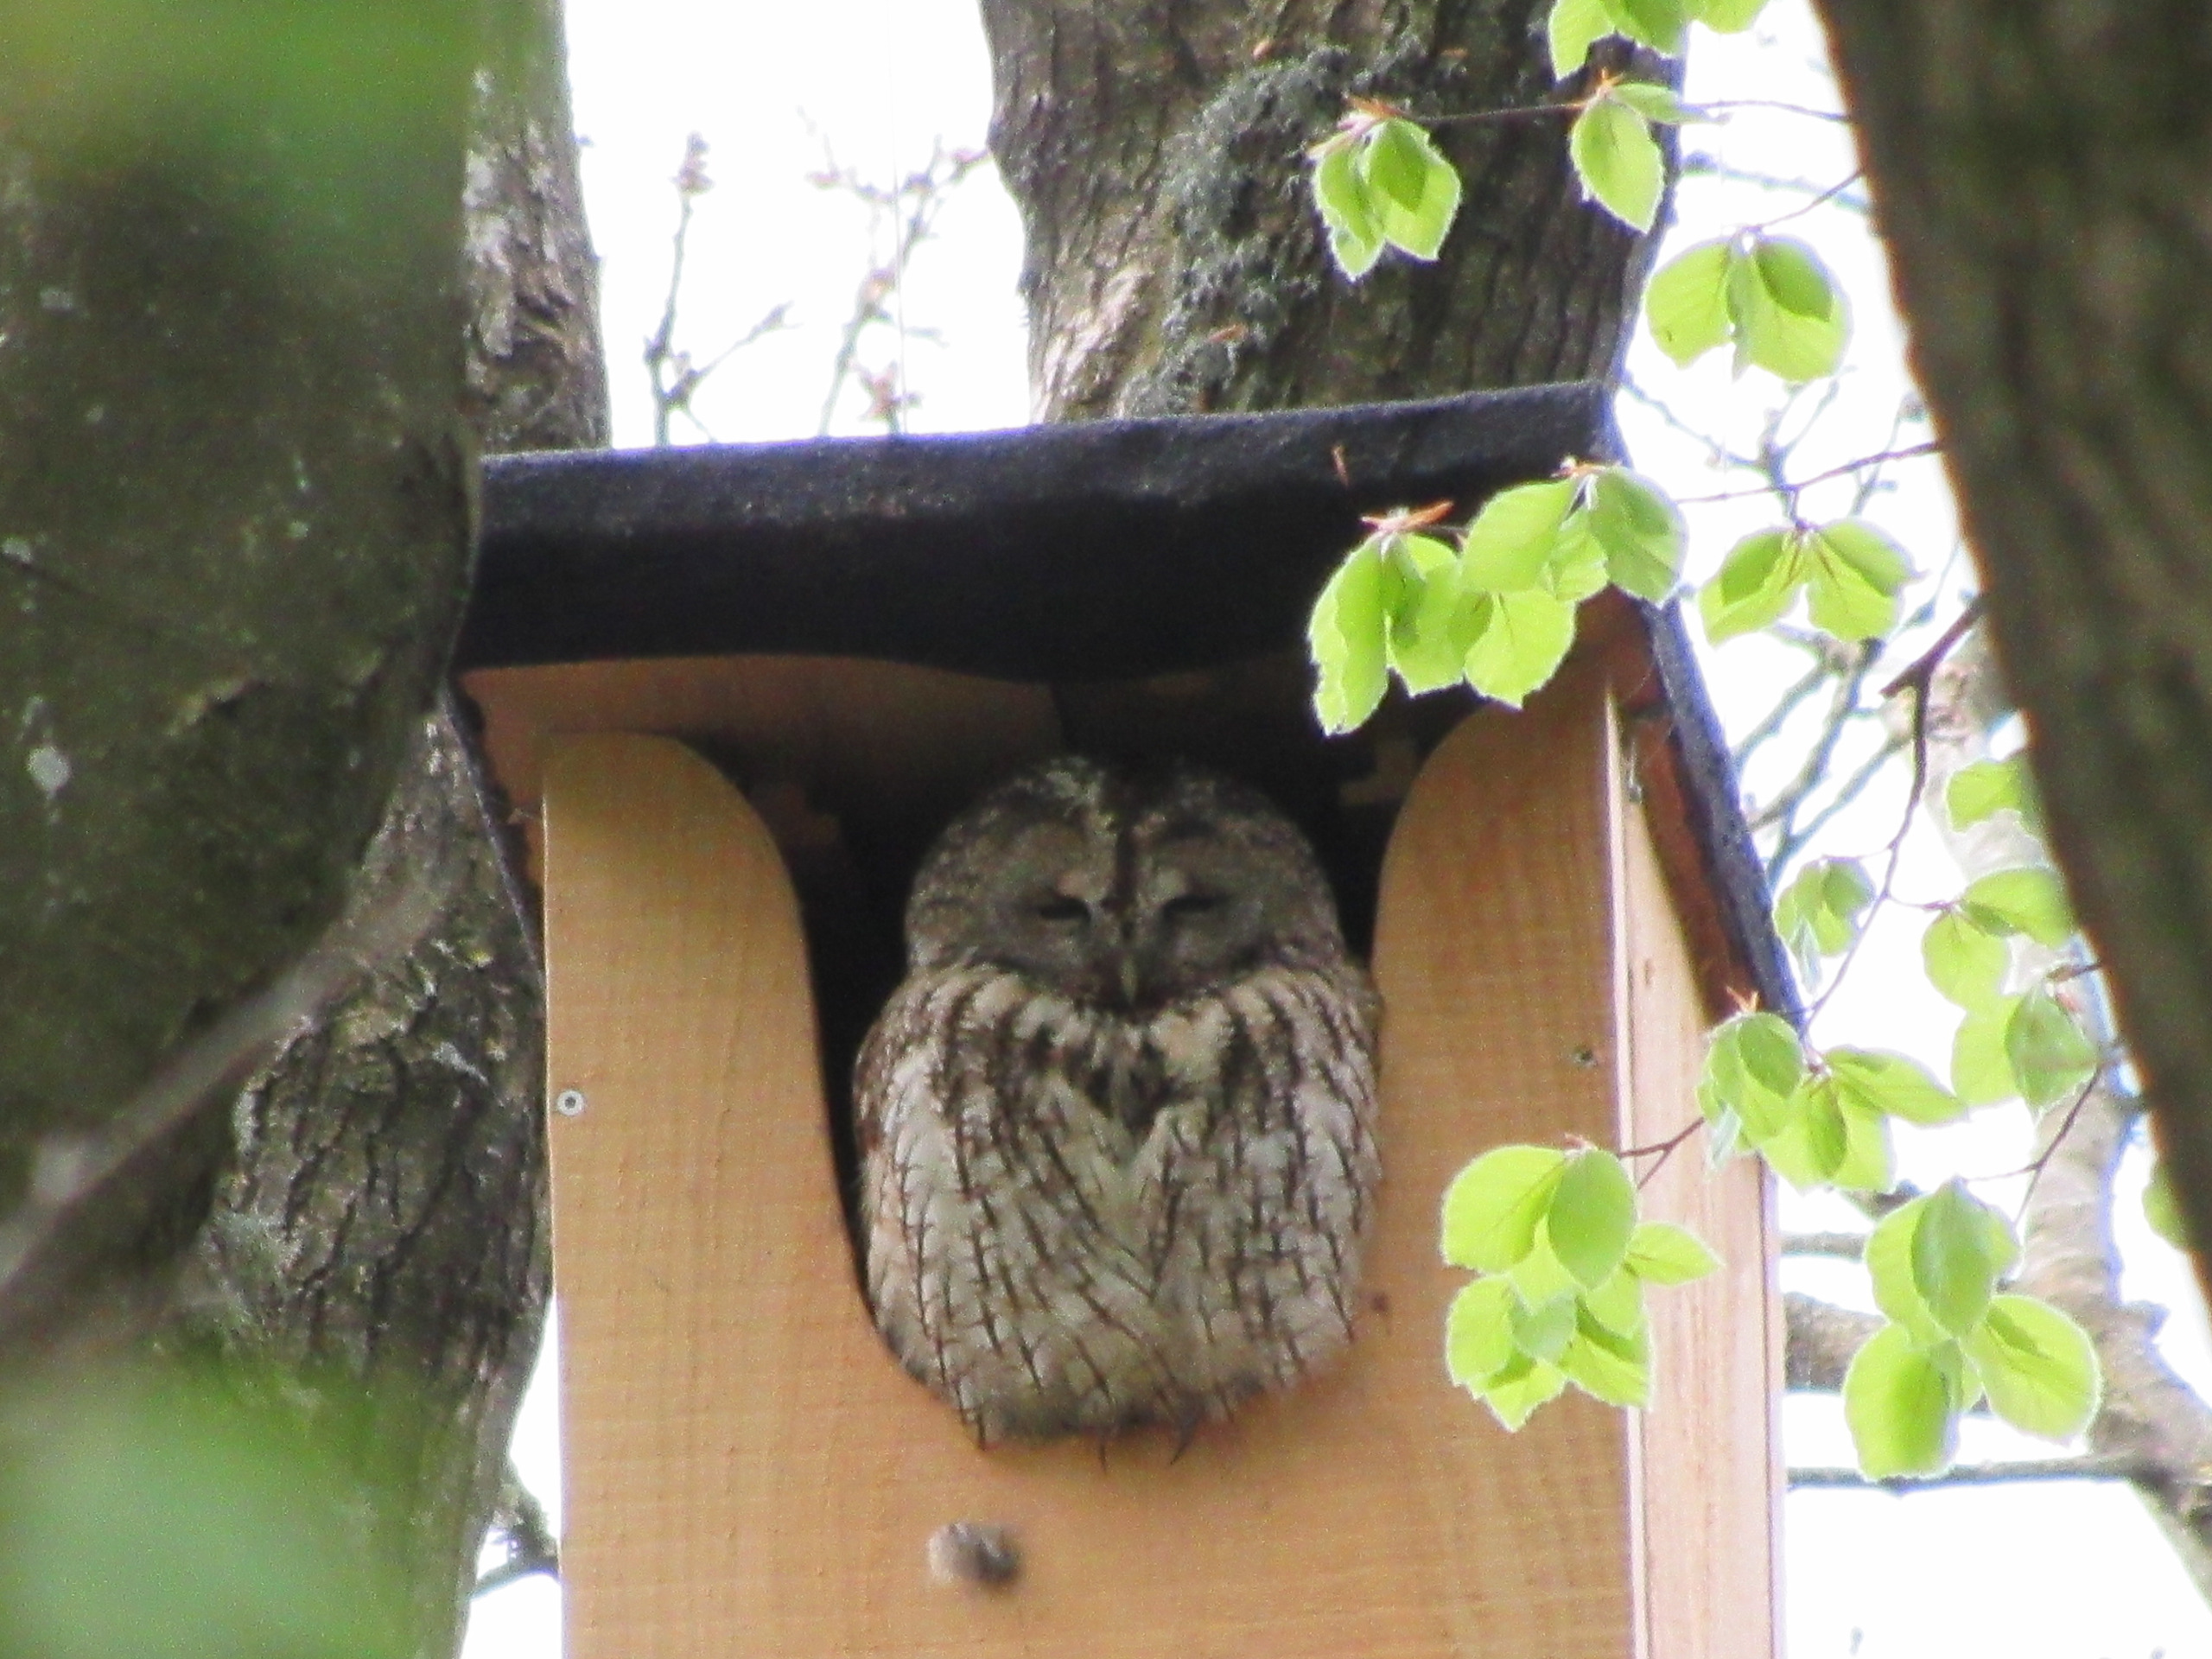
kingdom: Animalia
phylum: Chordata
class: Aves
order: Strigiformes
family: Strigidae
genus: Strix
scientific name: Strix aluco
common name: Natugle
